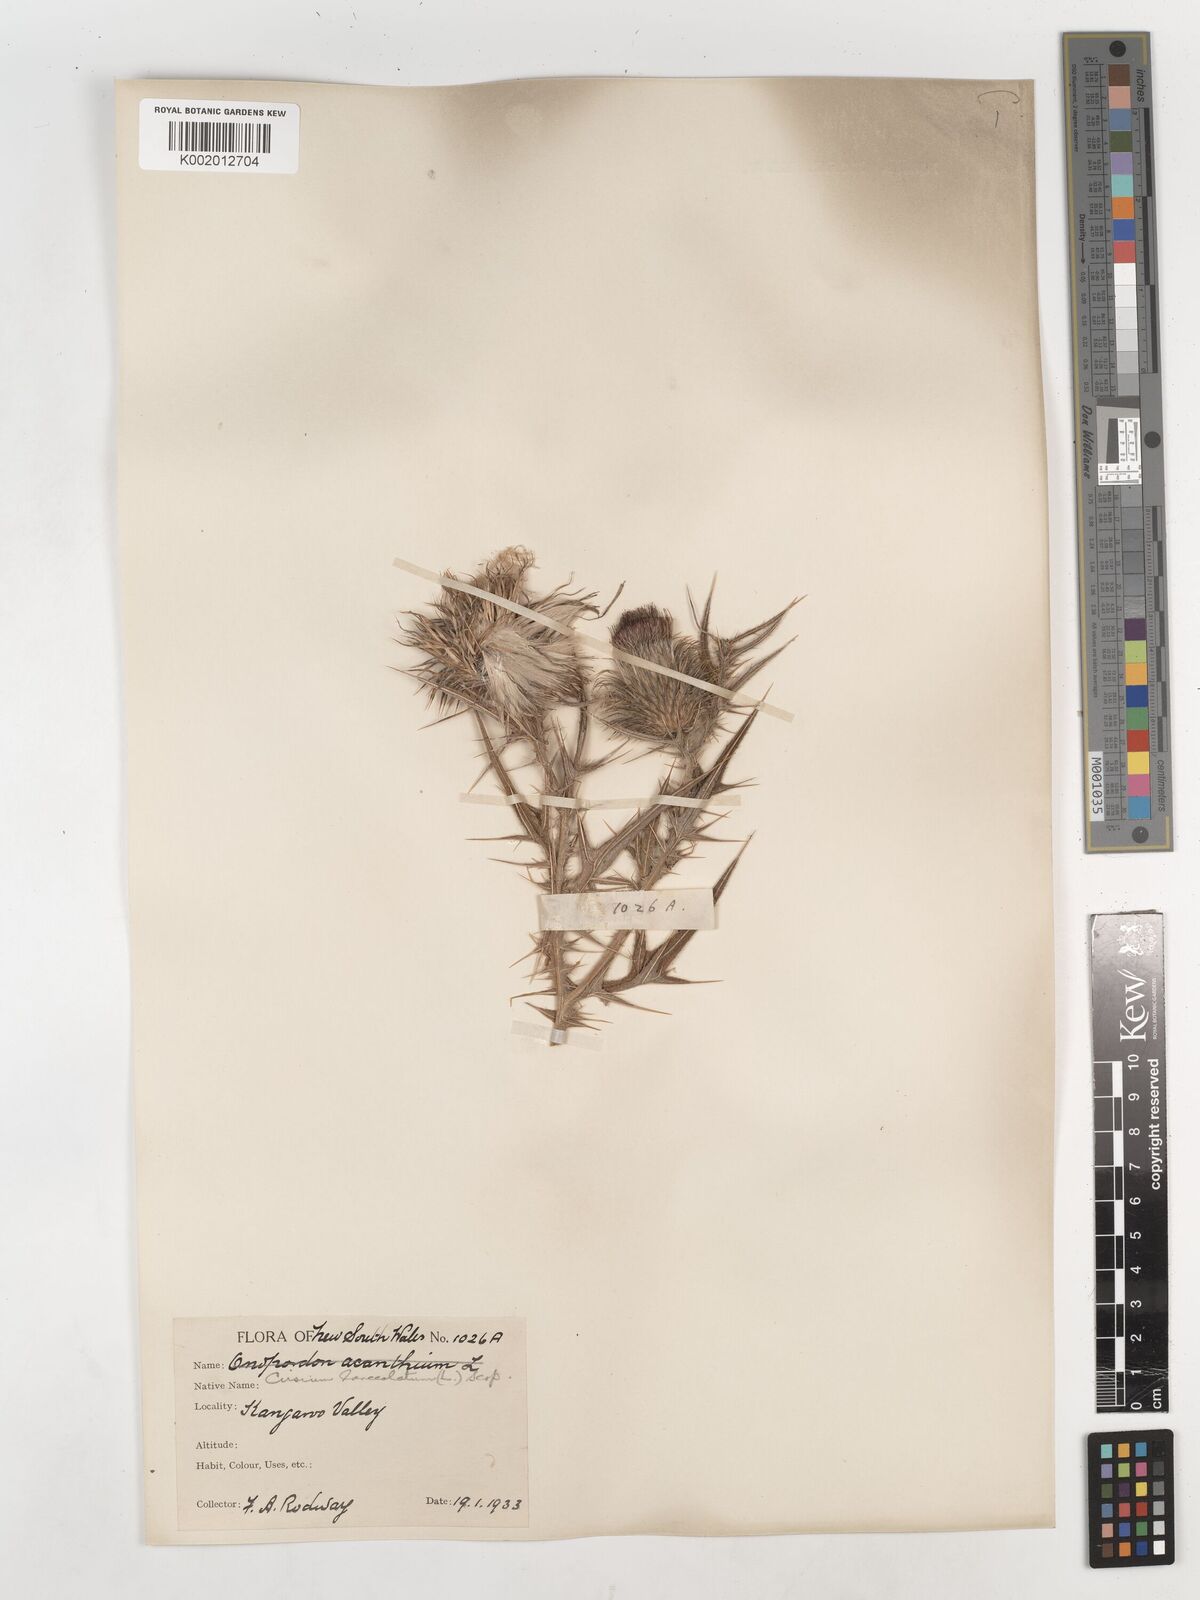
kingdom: Plantae
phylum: Tracheophyta
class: Magnoliopsida
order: Asterales
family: Asteraceae
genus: Cirsium
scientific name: Cirsium vulgare
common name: Bull thistle
